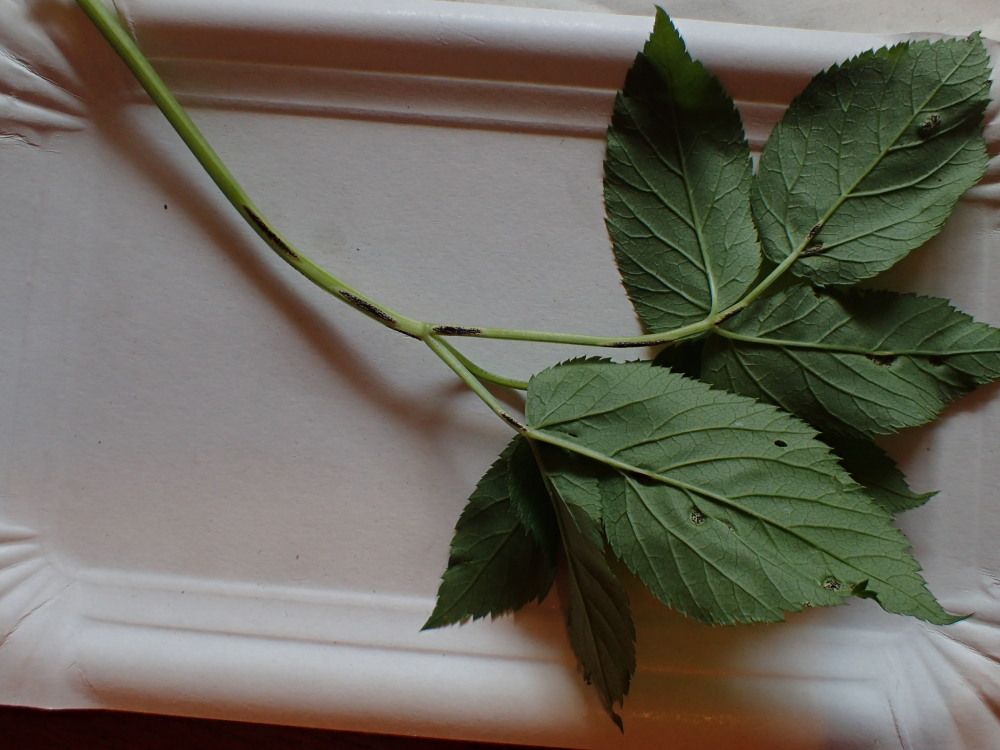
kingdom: Fungi
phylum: Basidiomycota
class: Pucciniomycetes
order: Pucciniales
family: Pucciniaceae
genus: Puccinia
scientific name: Puccinia
